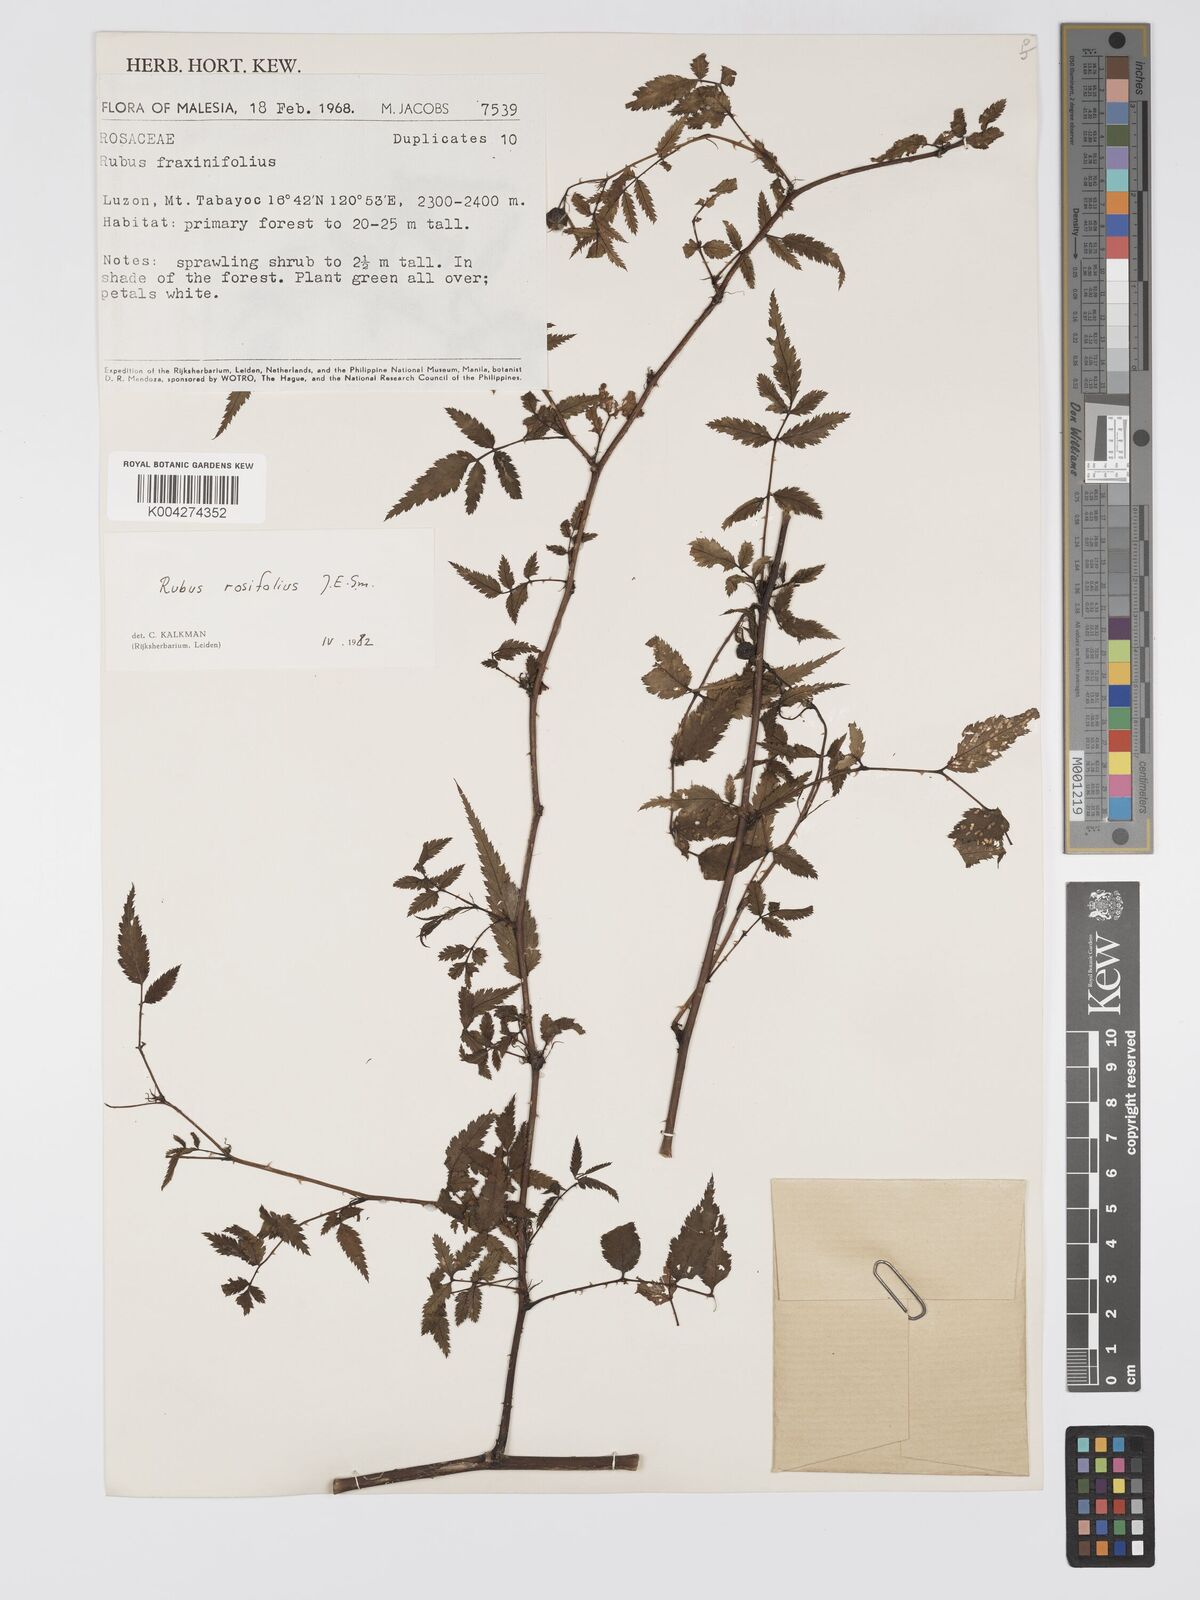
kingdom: Plantae
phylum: Tracheophyta
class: Magnoliopsida
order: Rosales
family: Rosaceae
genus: Rubus
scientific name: Rubus
